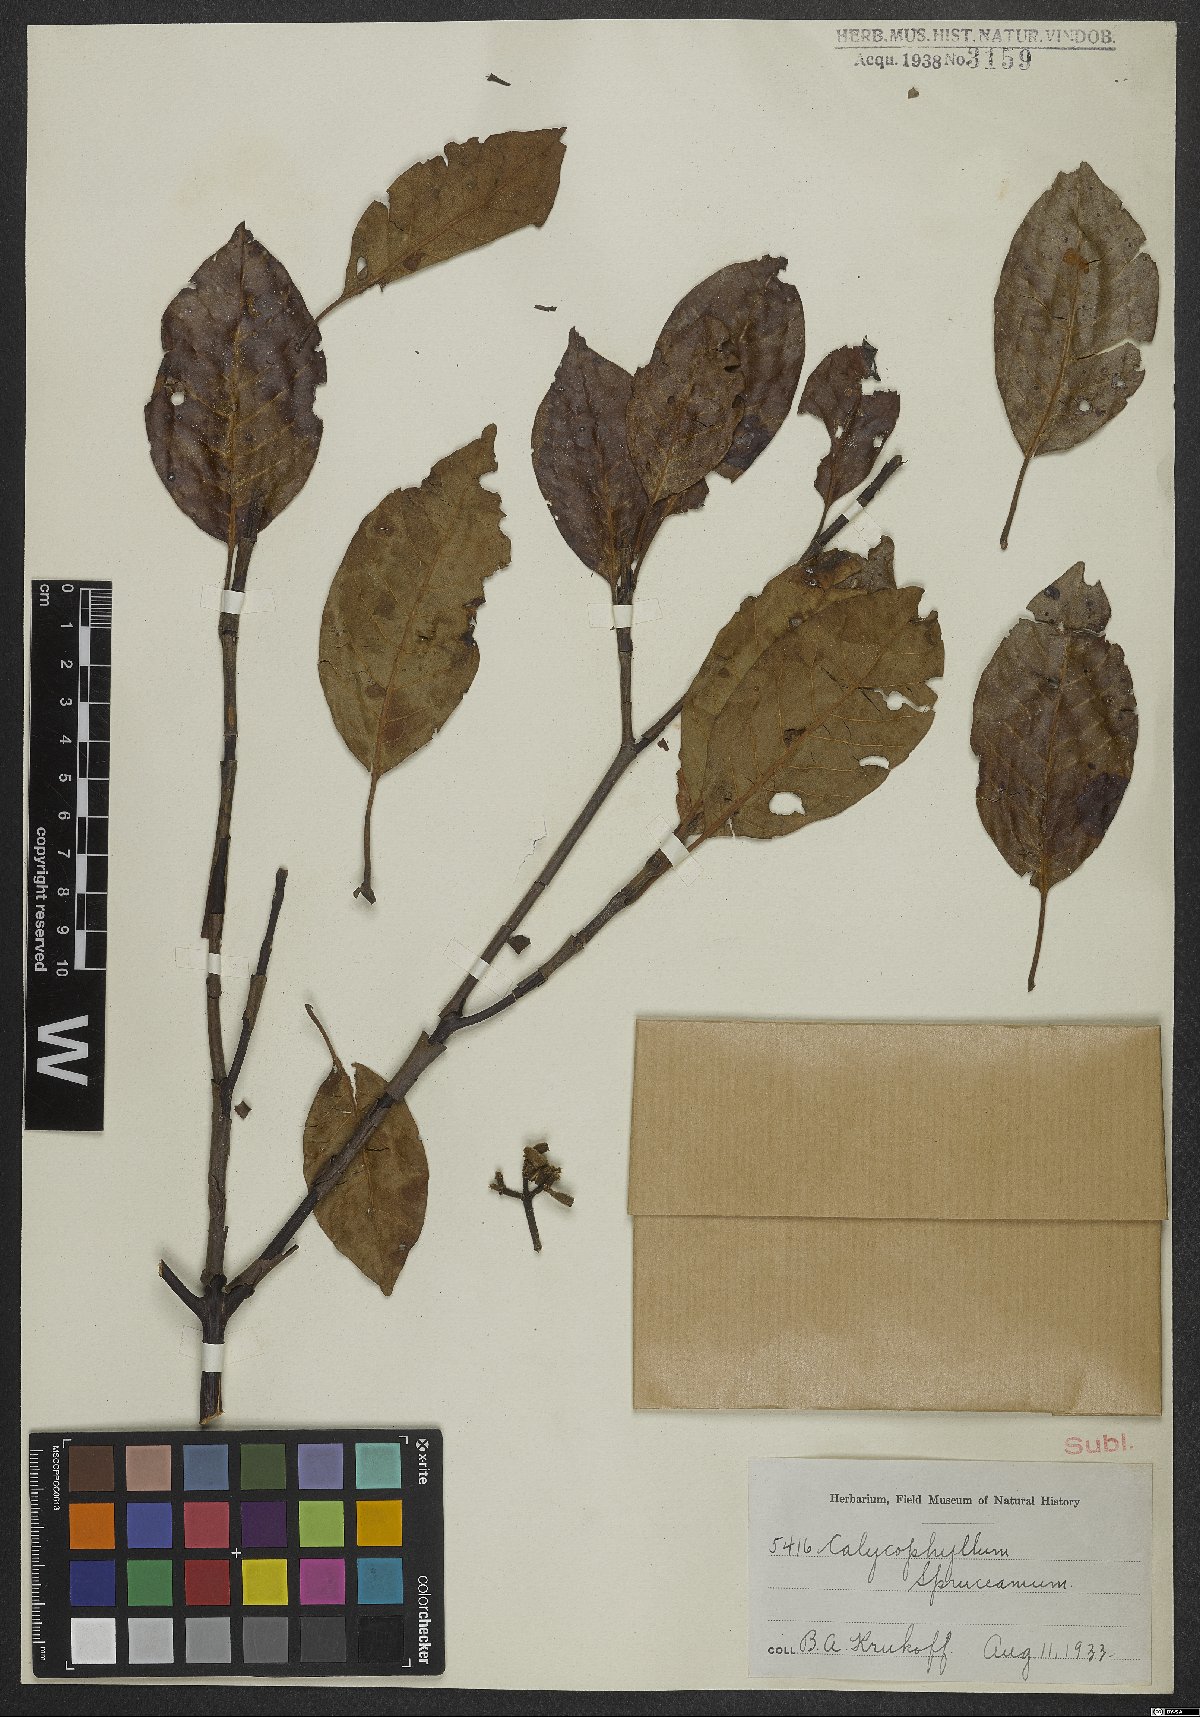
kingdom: Plantae
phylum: Tracheophyta
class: Magnoliopsida
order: Gentianales
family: Rubiaceae
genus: Calycophyllum
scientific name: Calycophyllum spruceanum
